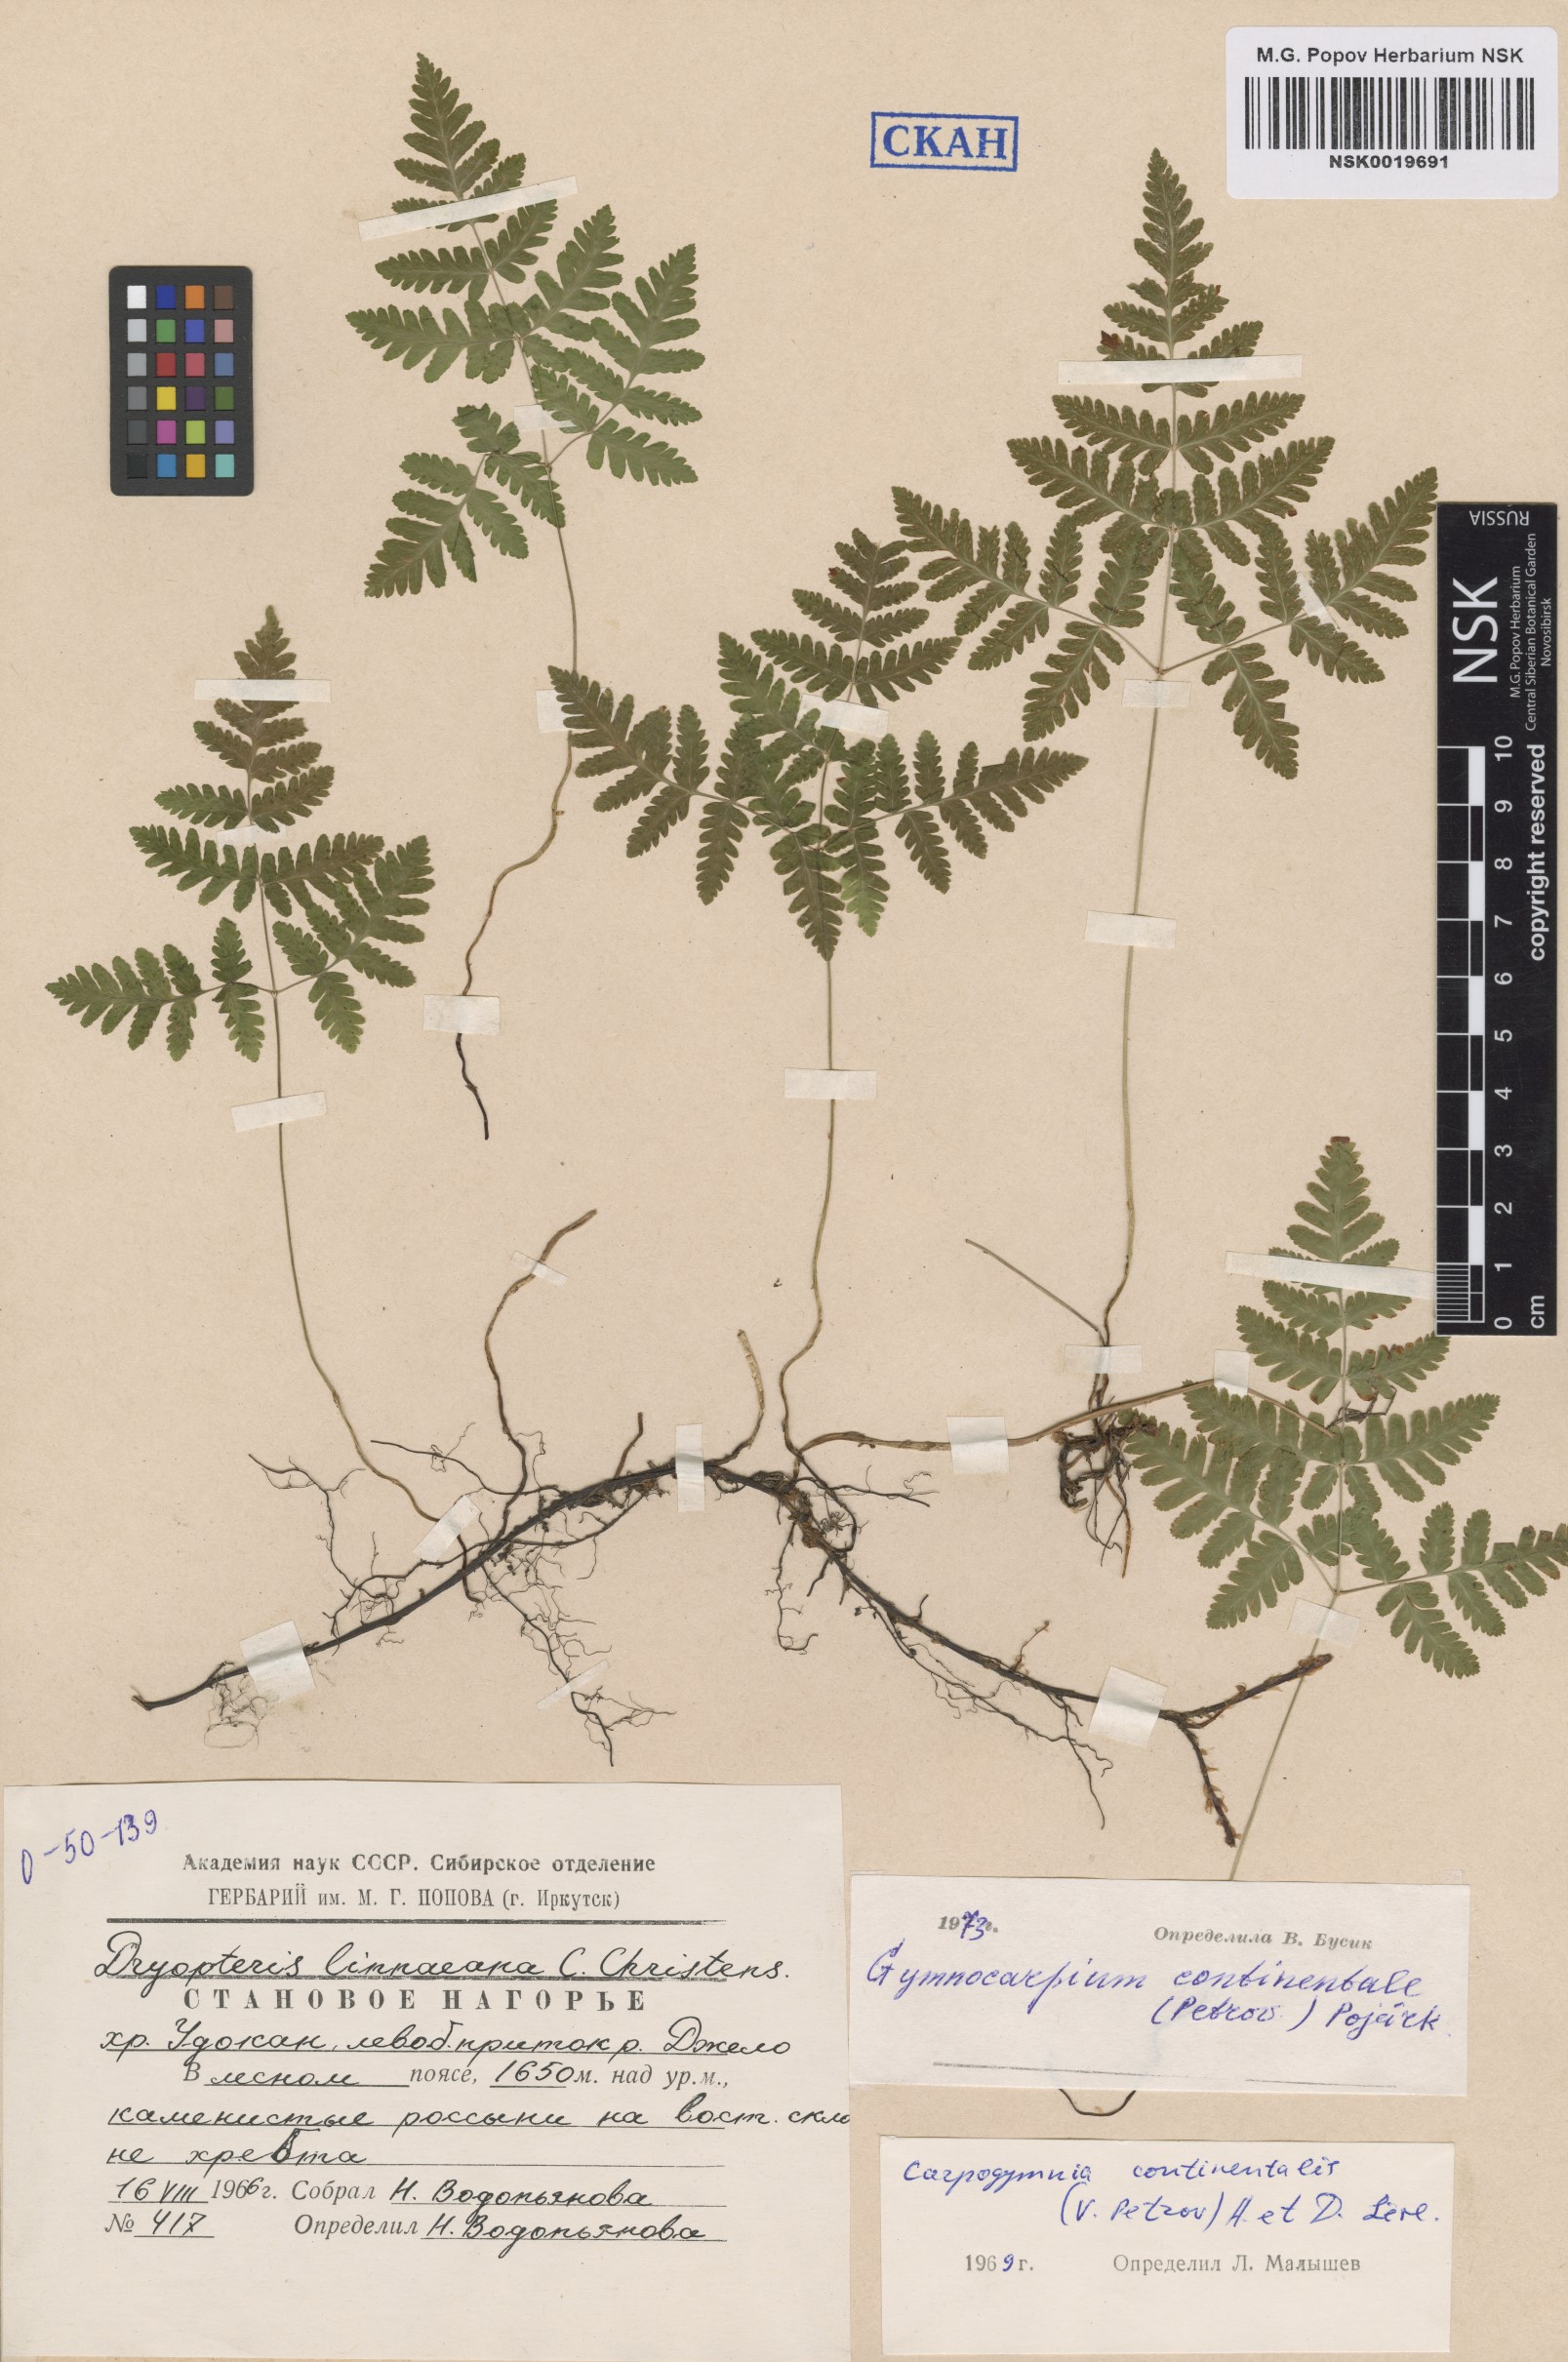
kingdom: Plantae
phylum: Tracheophyta
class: Polypodiopsida
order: Polypodiales
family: Cystopteridaceae
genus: Gymnocarpium
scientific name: Gymnocarpium continentale
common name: Asian oak fern
